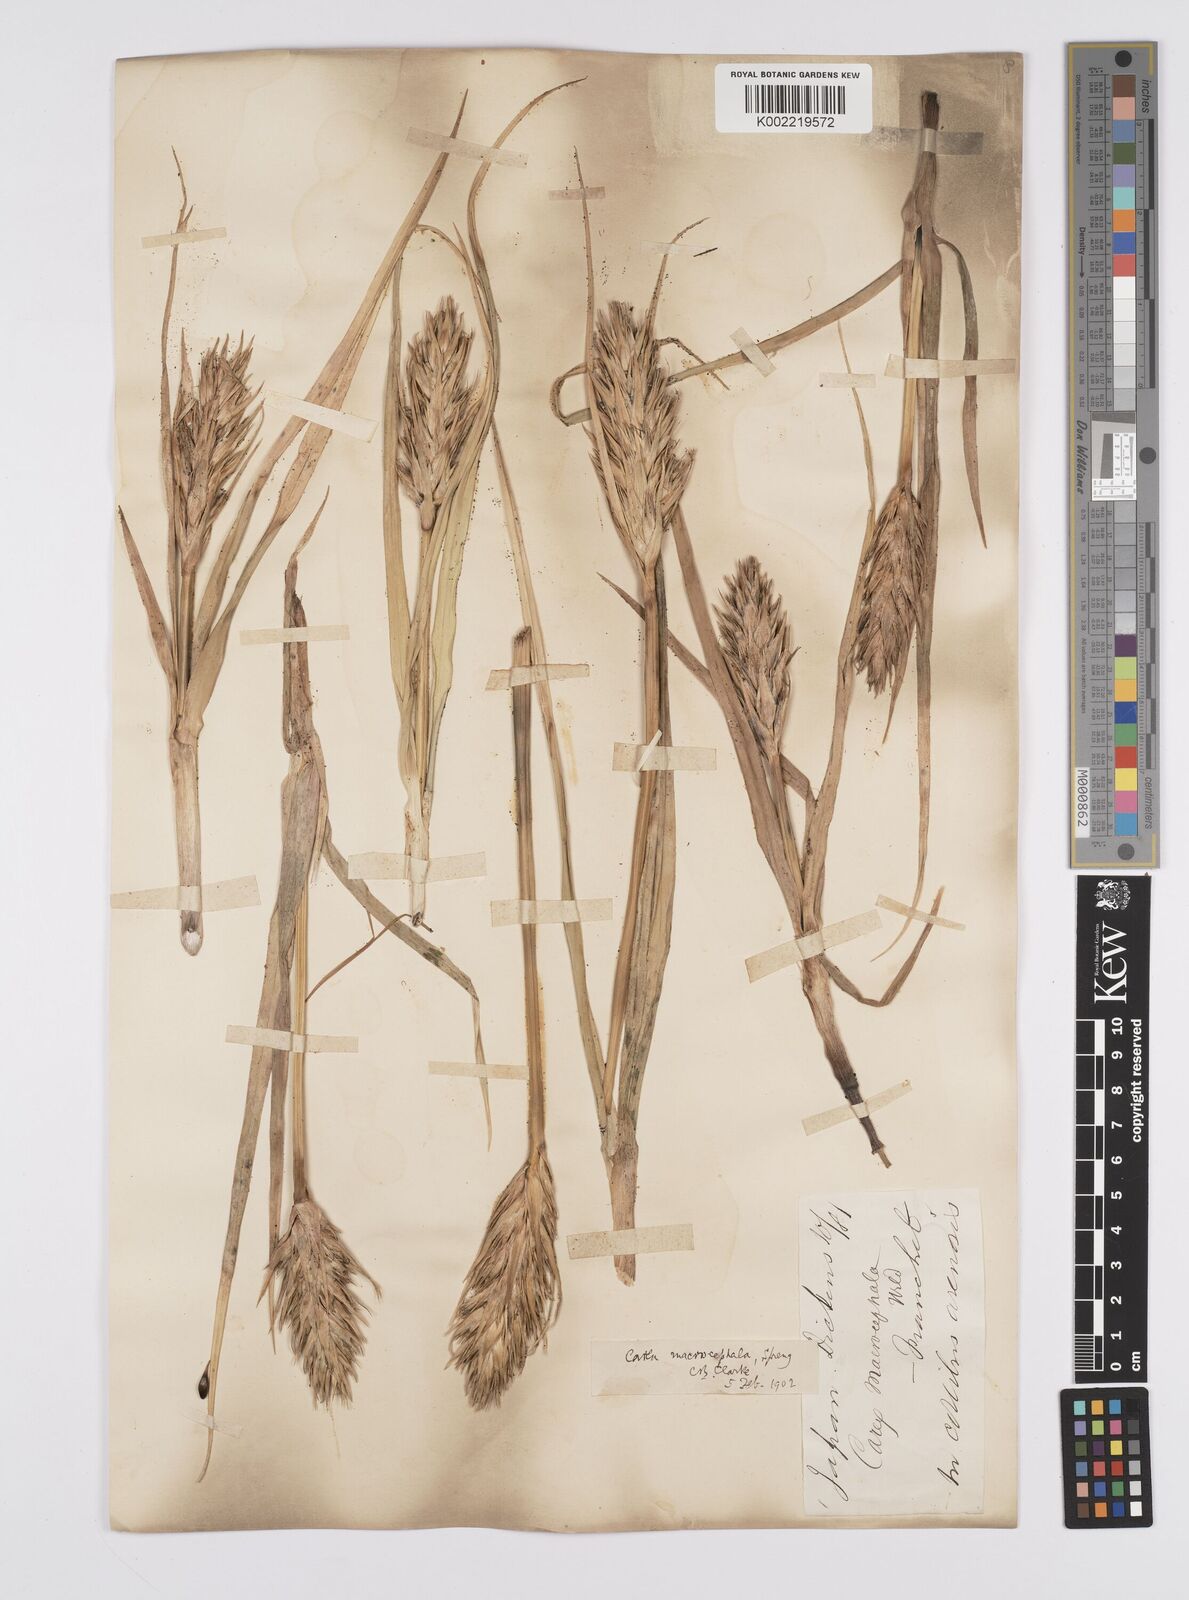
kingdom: Plantae
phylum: Tracheophyta
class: Liliopsida
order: Poales
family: Cyperaceae
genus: Carex
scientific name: Carex macrocephala
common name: Large-head sedge
